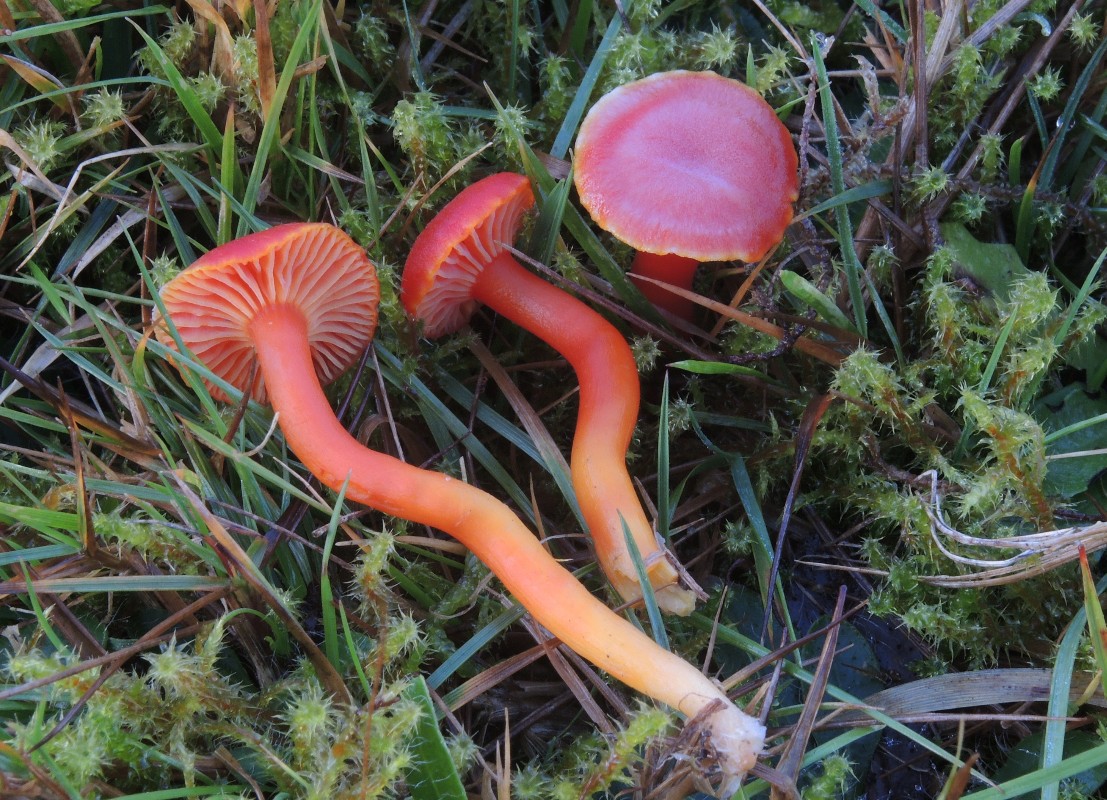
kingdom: Fungi
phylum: Basidiomycota
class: Agaricomycetes
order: Agaricales
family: Hygrophoraceae
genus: Hygrocybe
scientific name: Hygrocybe
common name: vokshat
